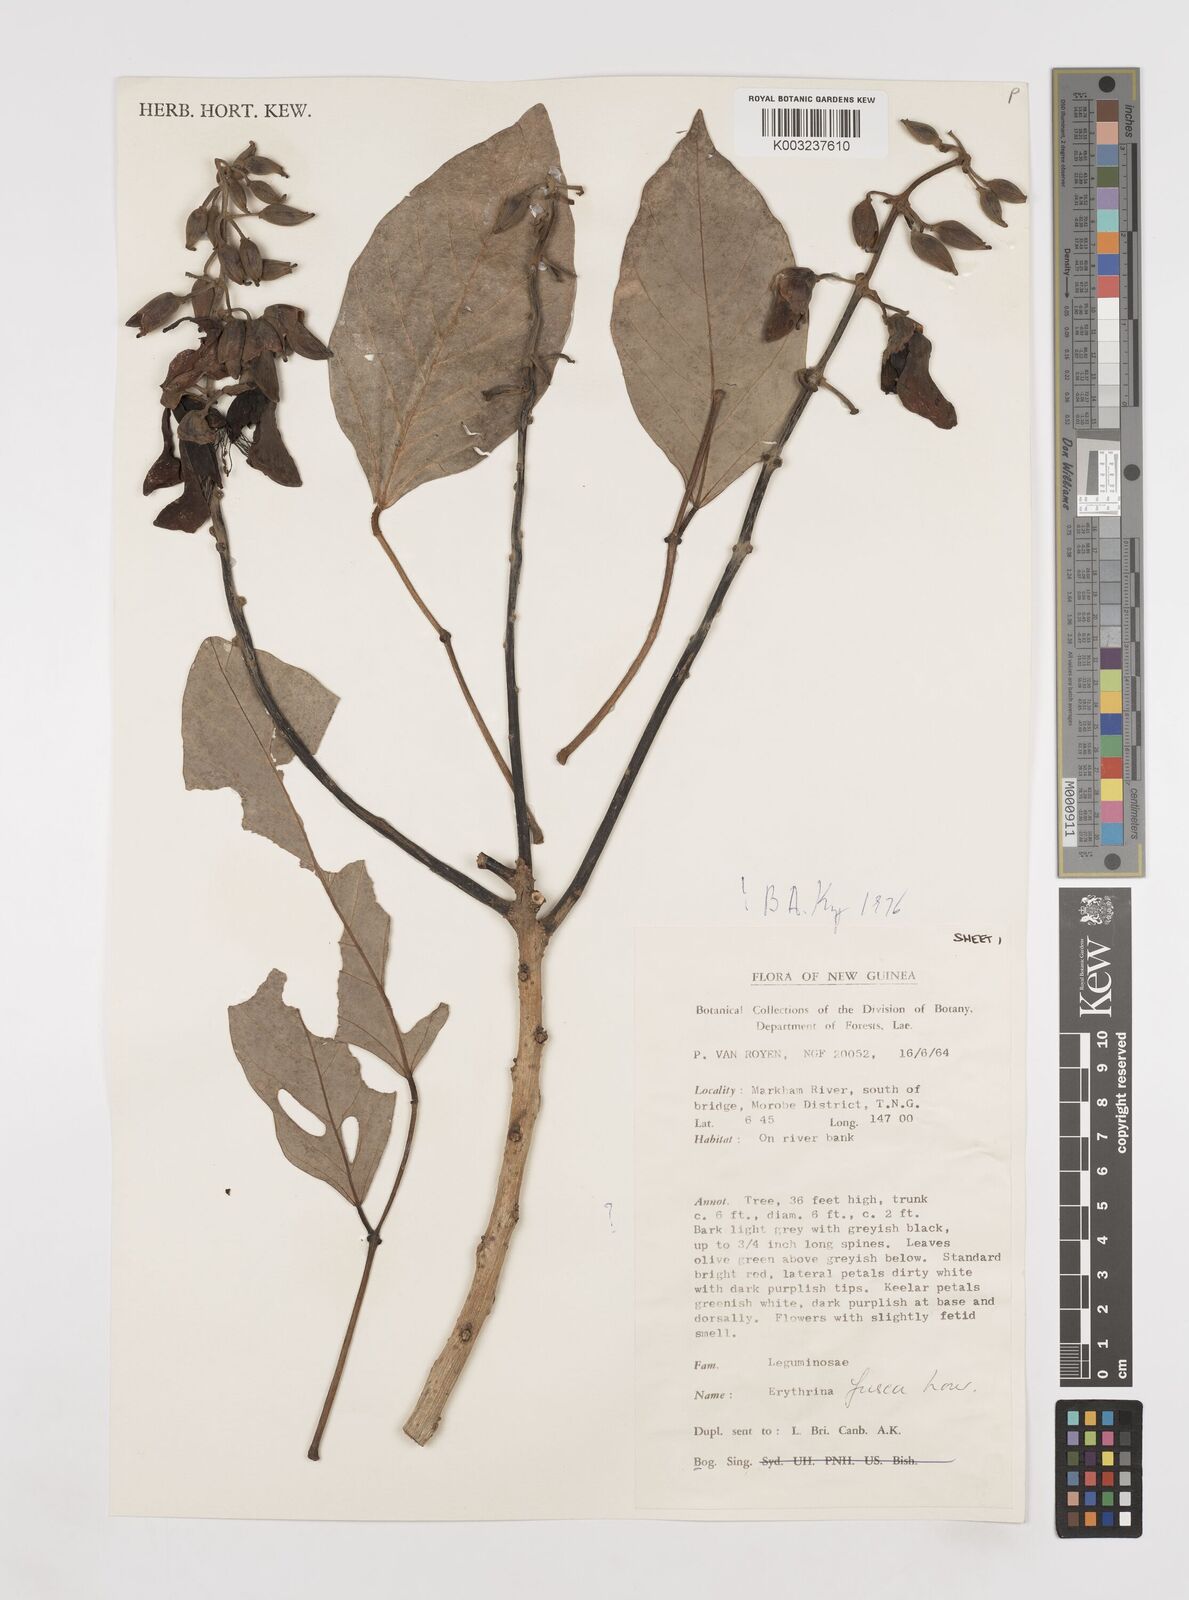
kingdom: Plantae
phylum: Tracheophyta
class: Magnoliopsida
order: Fabales
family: Fabaceae
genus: Erythrina
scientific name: Erythrina fusca
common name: Coral-bean
